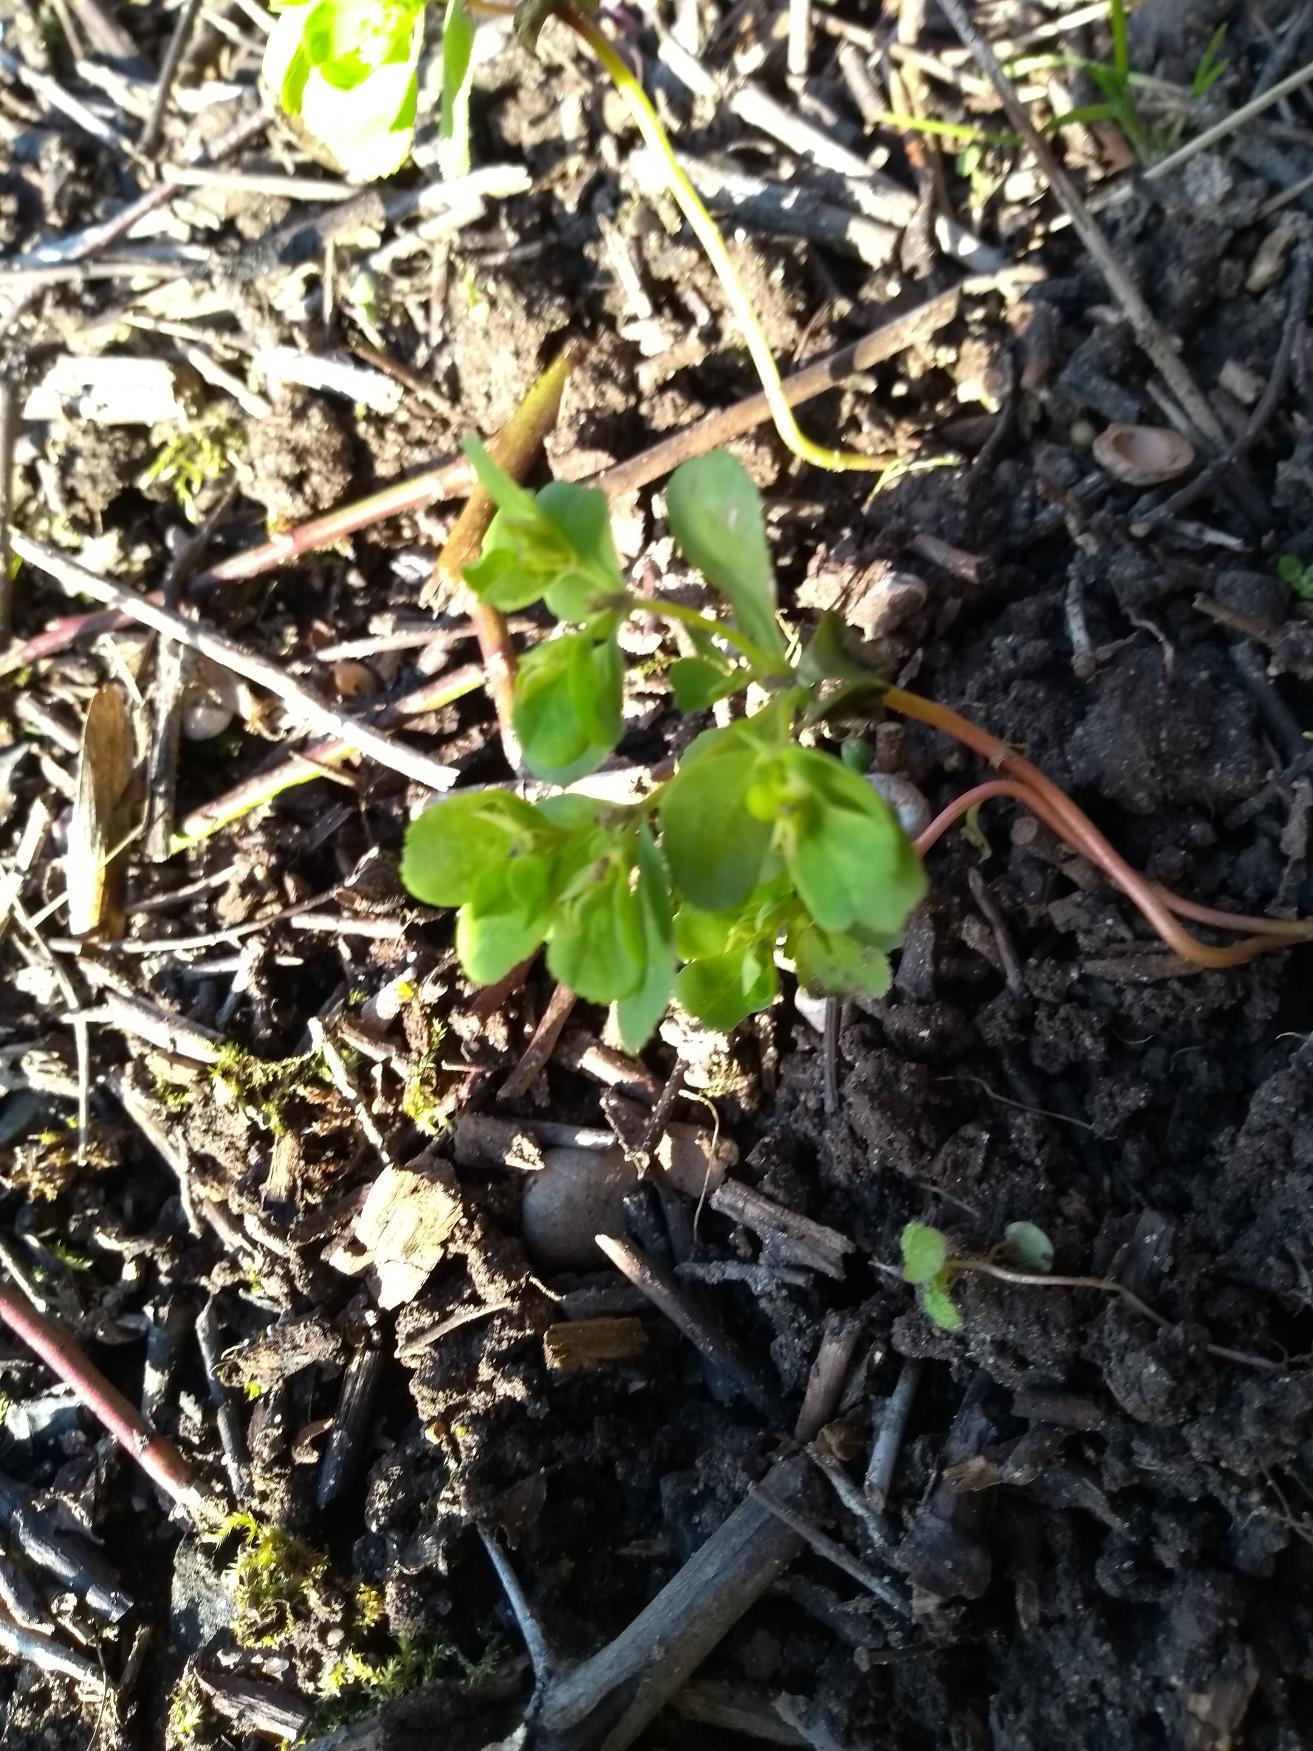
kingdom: Plantae
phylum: Tracheophyta
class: Magnoliopsida
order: Malpighiales
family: Euphorbiaceae
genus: Euphorbia
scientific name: Euphorbia helioscopia
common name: Skærm-vortemælk
